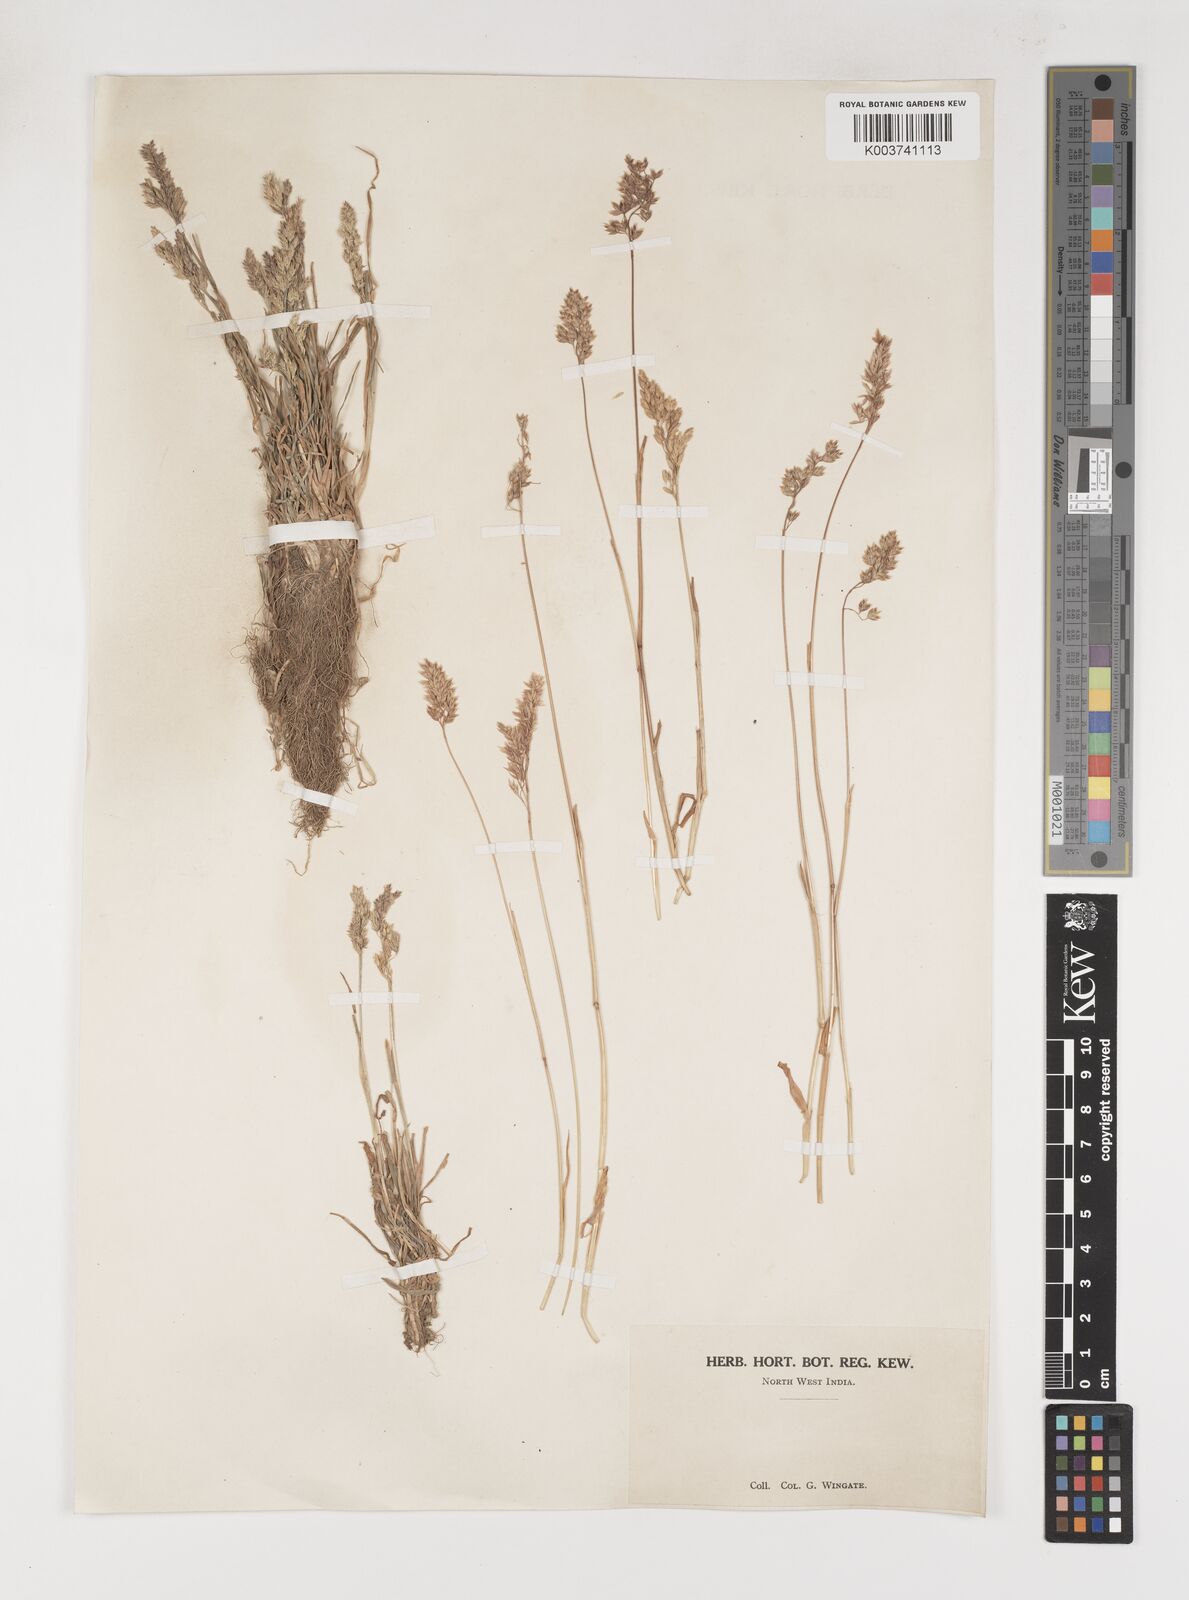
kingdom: Plantae
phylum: Tracheophyta
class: Liliopsida
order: Poales
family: Poaceae
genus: Poa
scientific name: Poa sinaica
